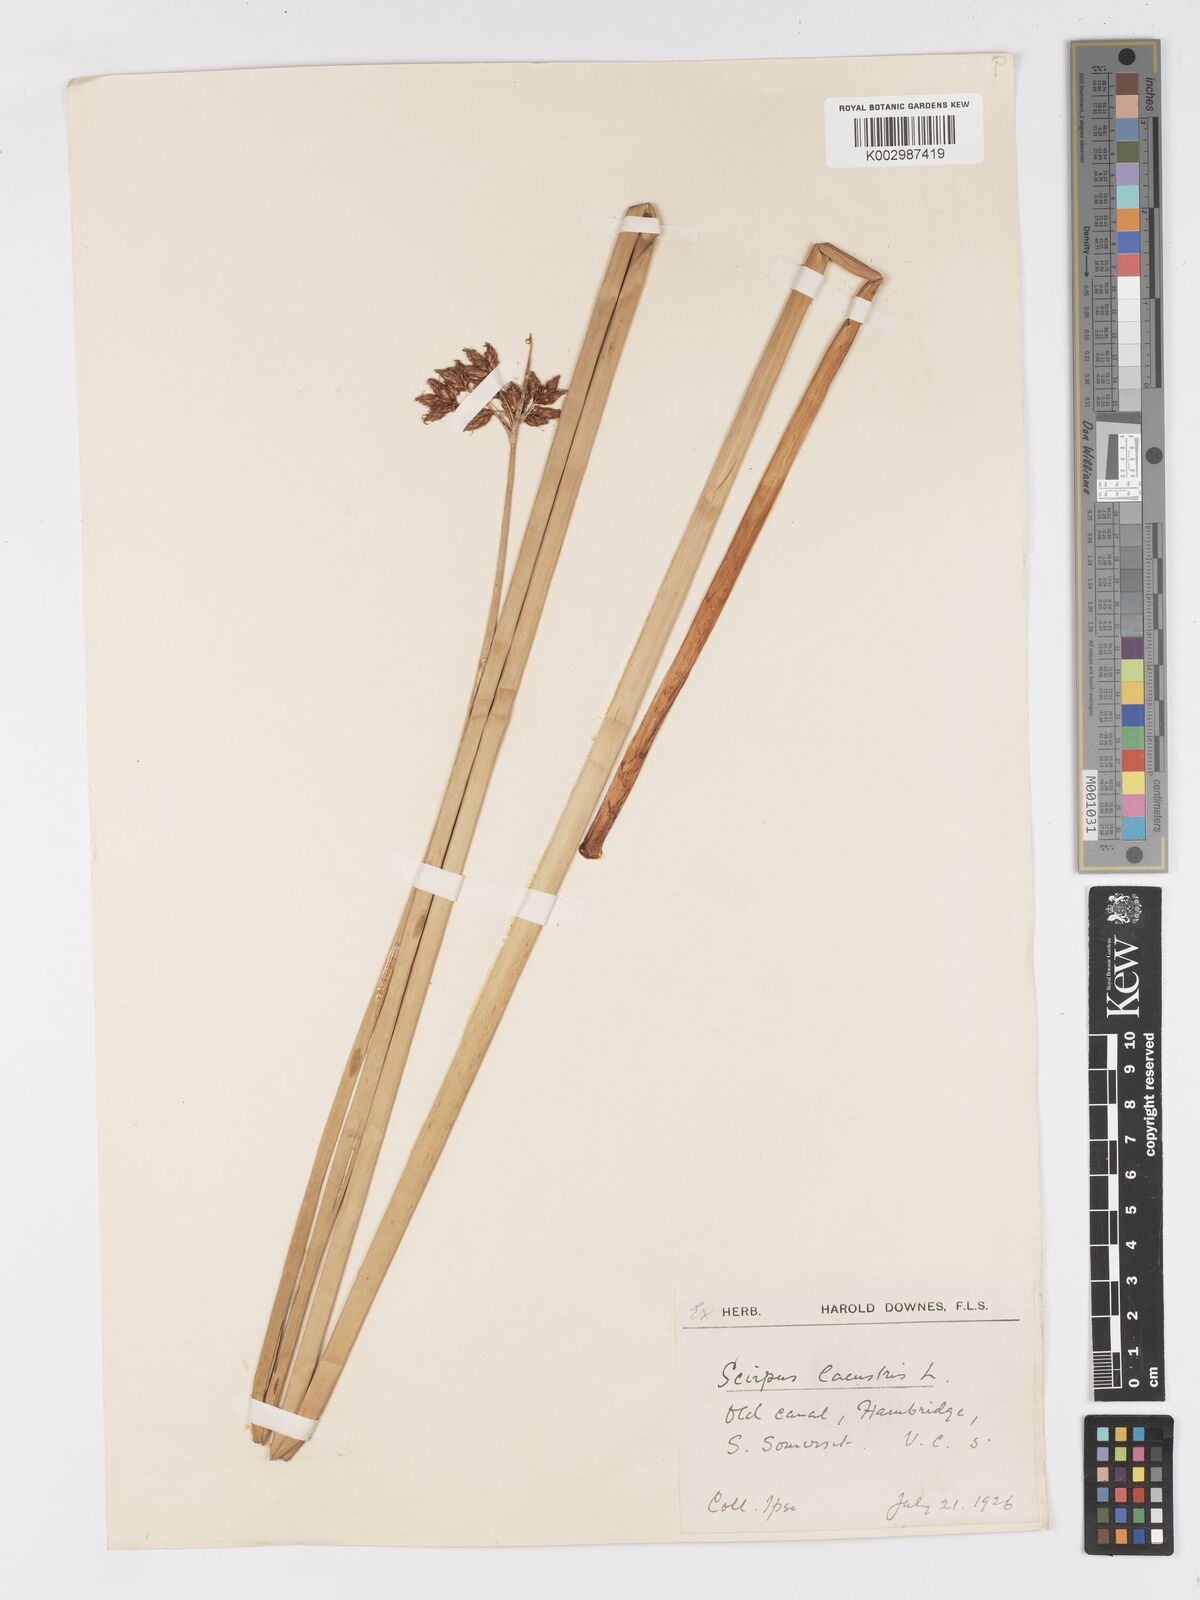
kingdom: Plantae
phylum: Tracheophyta
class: Liliopsida
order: Poales
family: Cyperaceae
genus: Schoenoplectus
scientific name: Schoenoplectus lacustris
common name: Common club-rush
